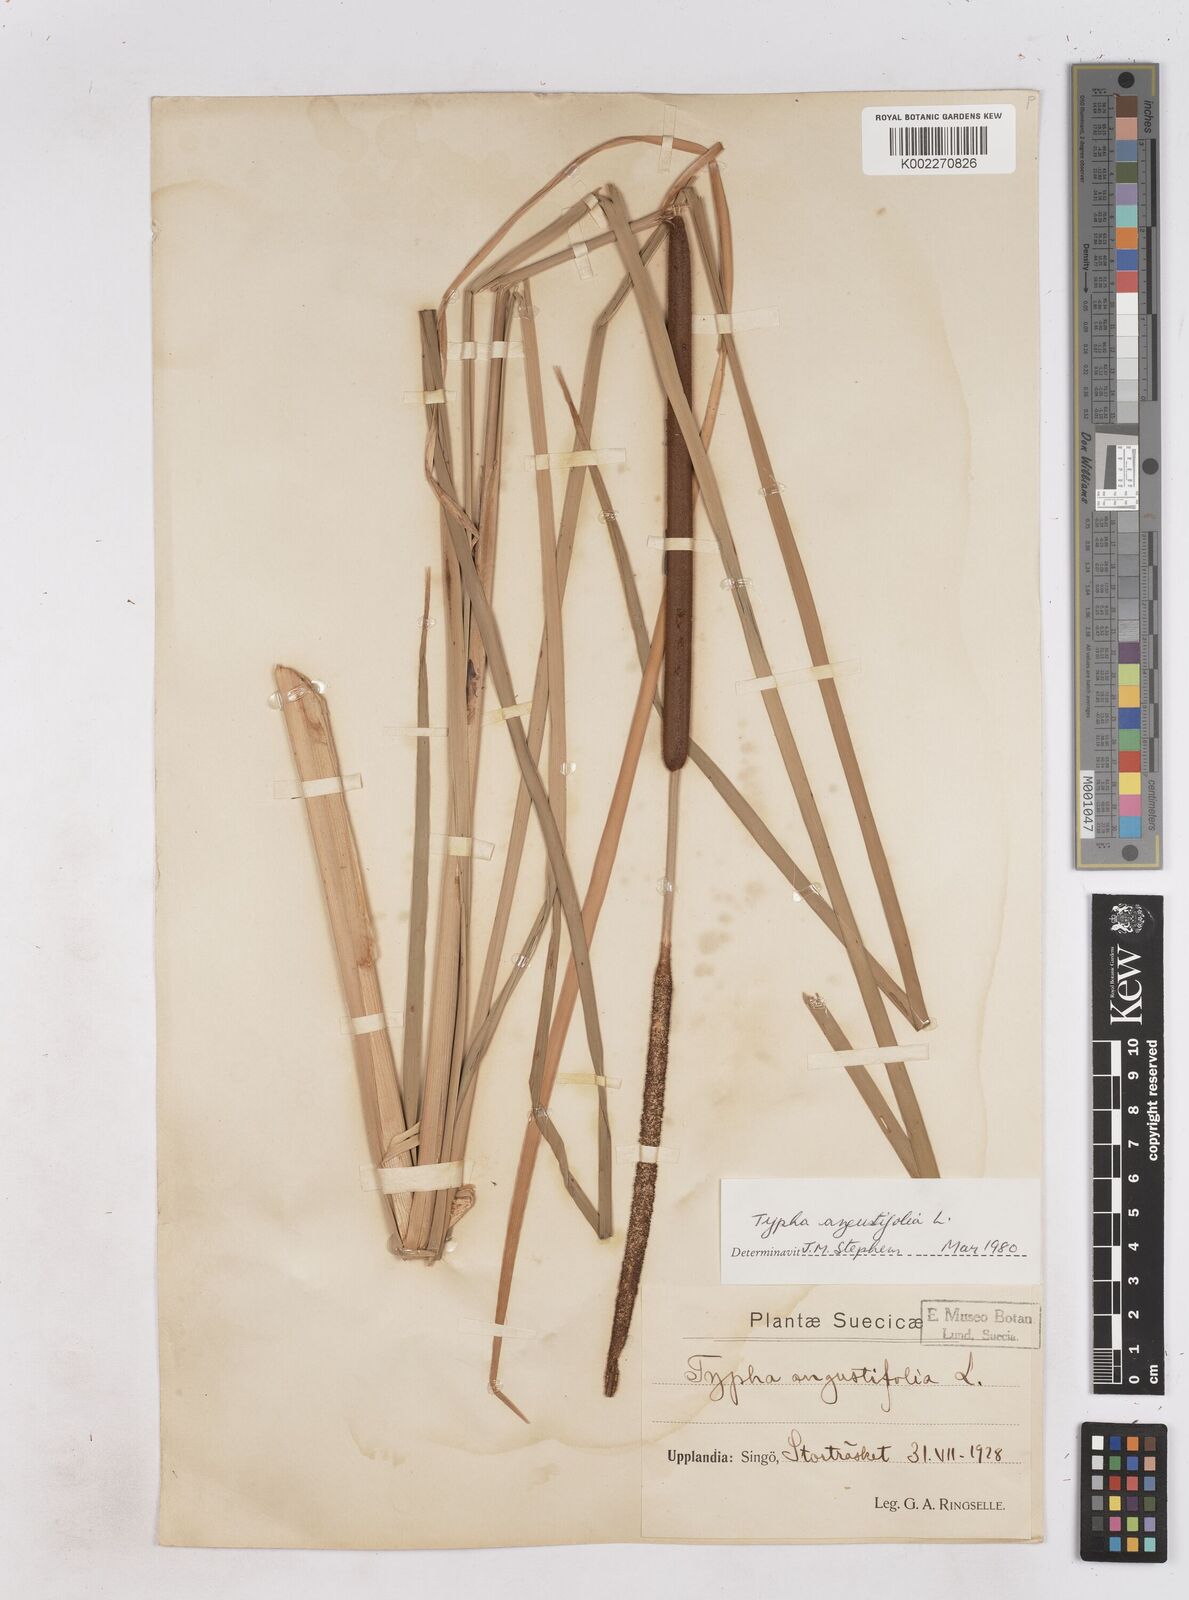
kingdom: Plantae
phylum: Tracheophyta
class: Liliopsida
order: Poales
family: Typhaceae
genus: Typha
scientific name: Typha angustifolia
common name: Lesser bulrush
